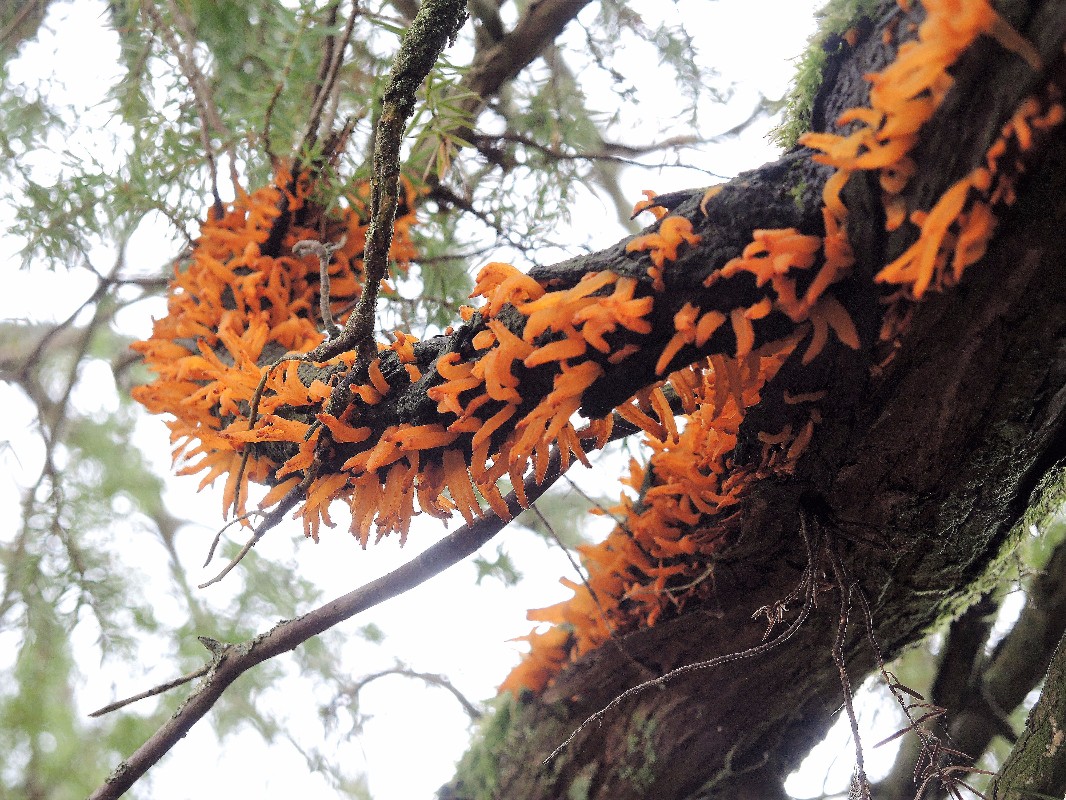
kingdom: Fungi
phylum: Basidiomycota
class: Pucciniomycetes
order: Pucciniales
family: Gymnosporangiaceae
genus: Gymnosporangium
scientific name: Gymnosporangium clavariiforme
